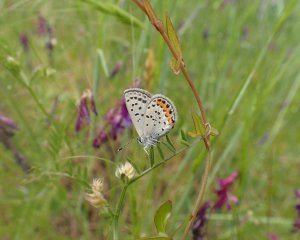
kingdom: Animalia
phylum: Arthropoda
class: Insecta
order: Lepidoptera
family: Lycaenidae
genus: Plebejus
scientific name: Plebejus acmon
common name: Acmon Blue
